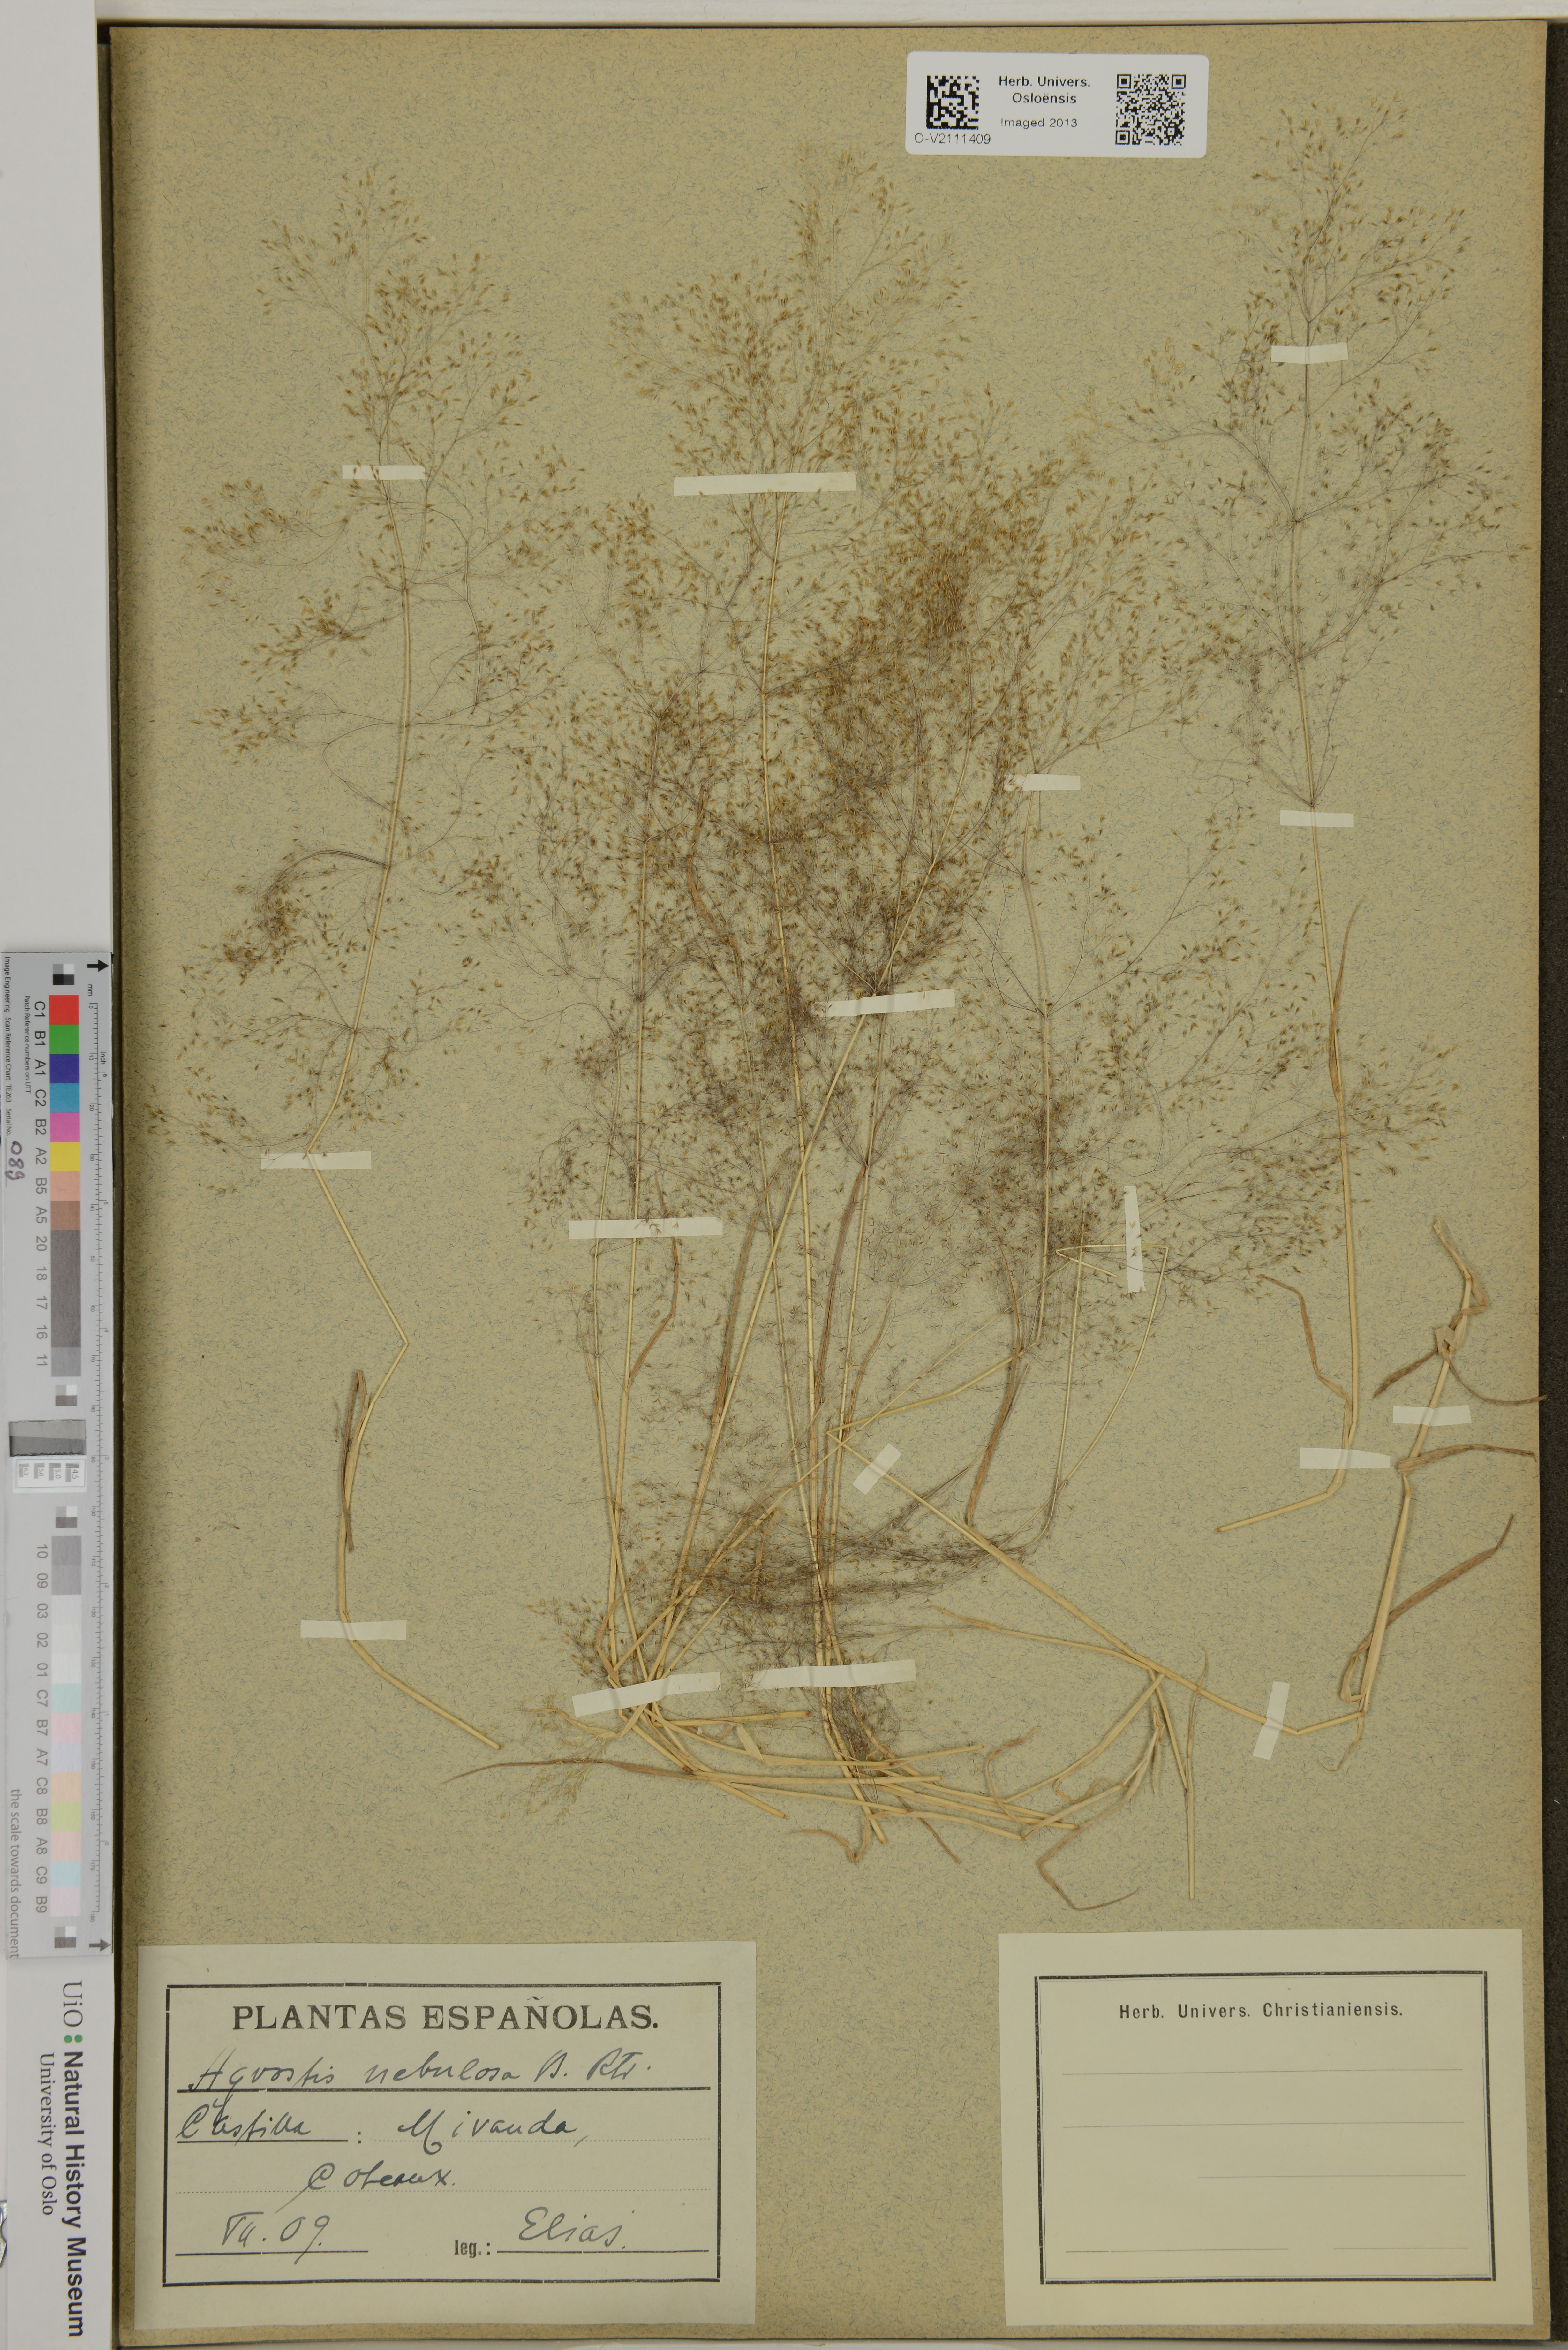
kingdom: Plantae
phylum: Tracheophyta
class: Liliopsida
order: Poales
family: Poaceae
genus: Agrostis
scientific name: Agrostis nebulosa
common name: Cloud grass
